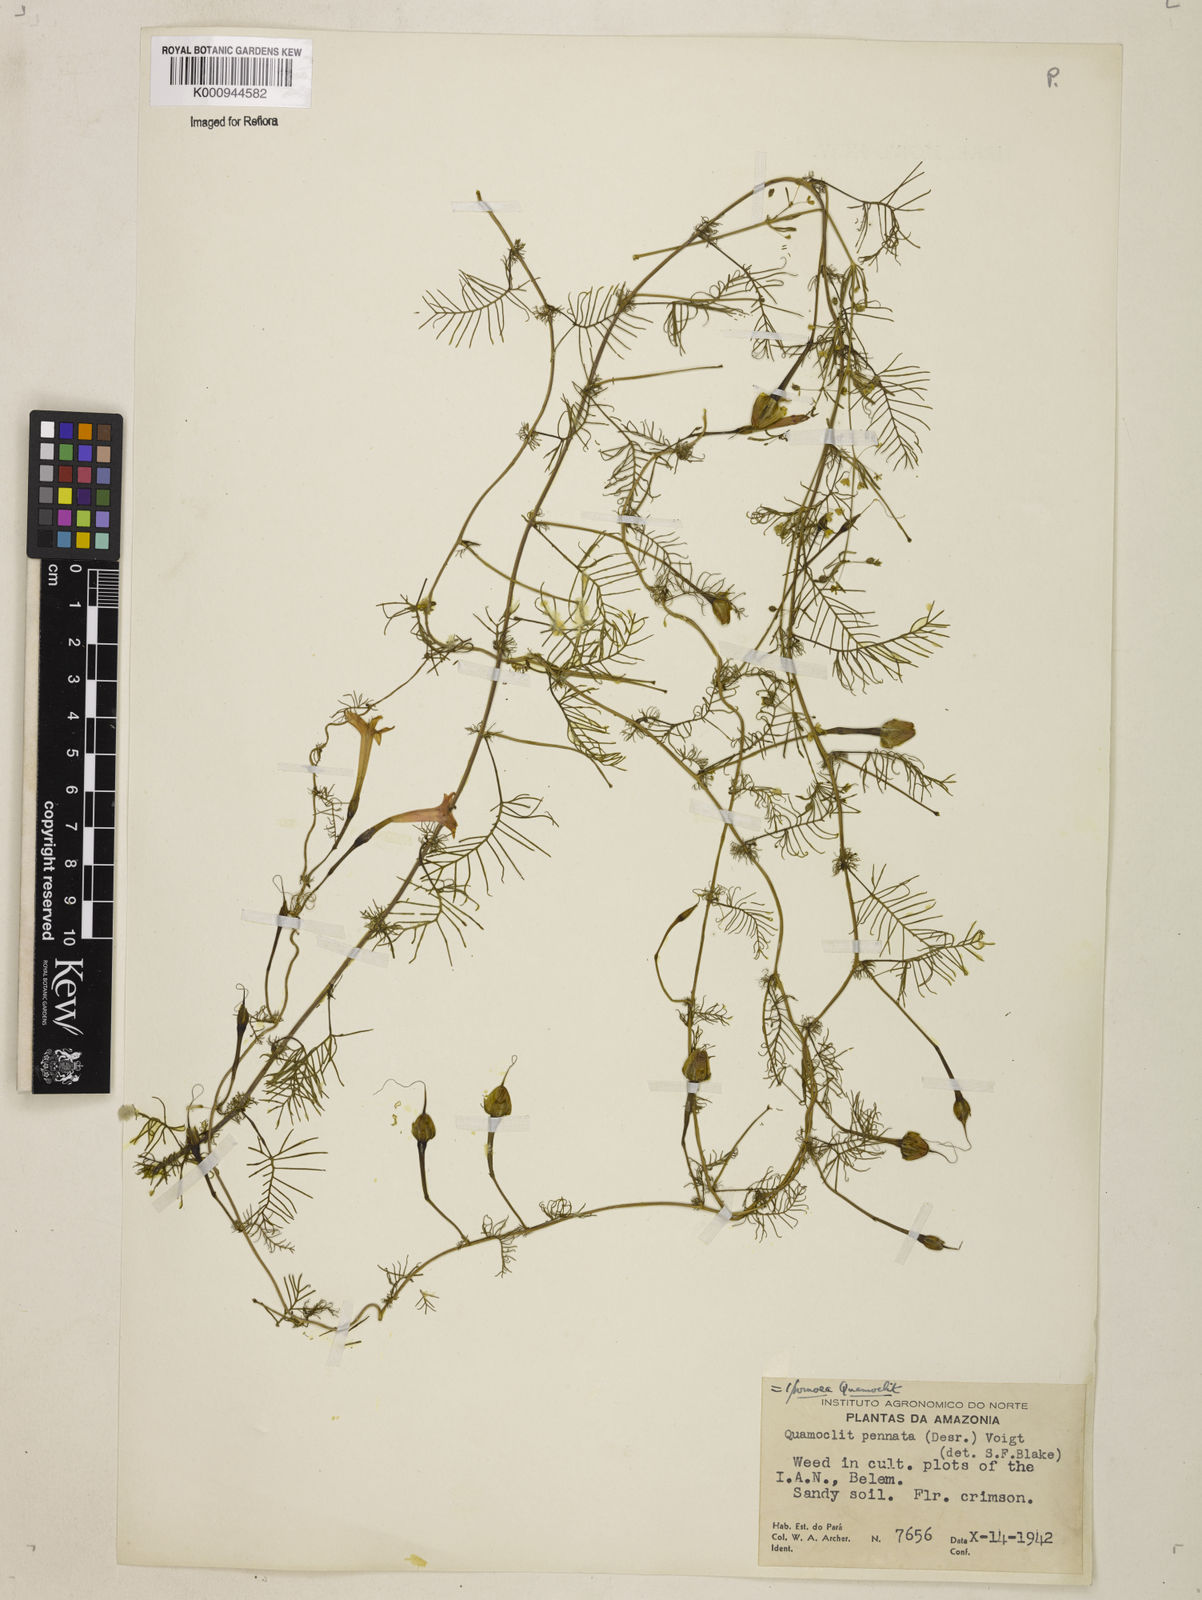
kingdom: Plantae
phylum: Tracheophyta
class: Magnoliopsida
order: Solanales
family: Convolvulaceae
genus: Ipomoea
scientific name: Ipomoea quamoclit
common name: Cypress vine
